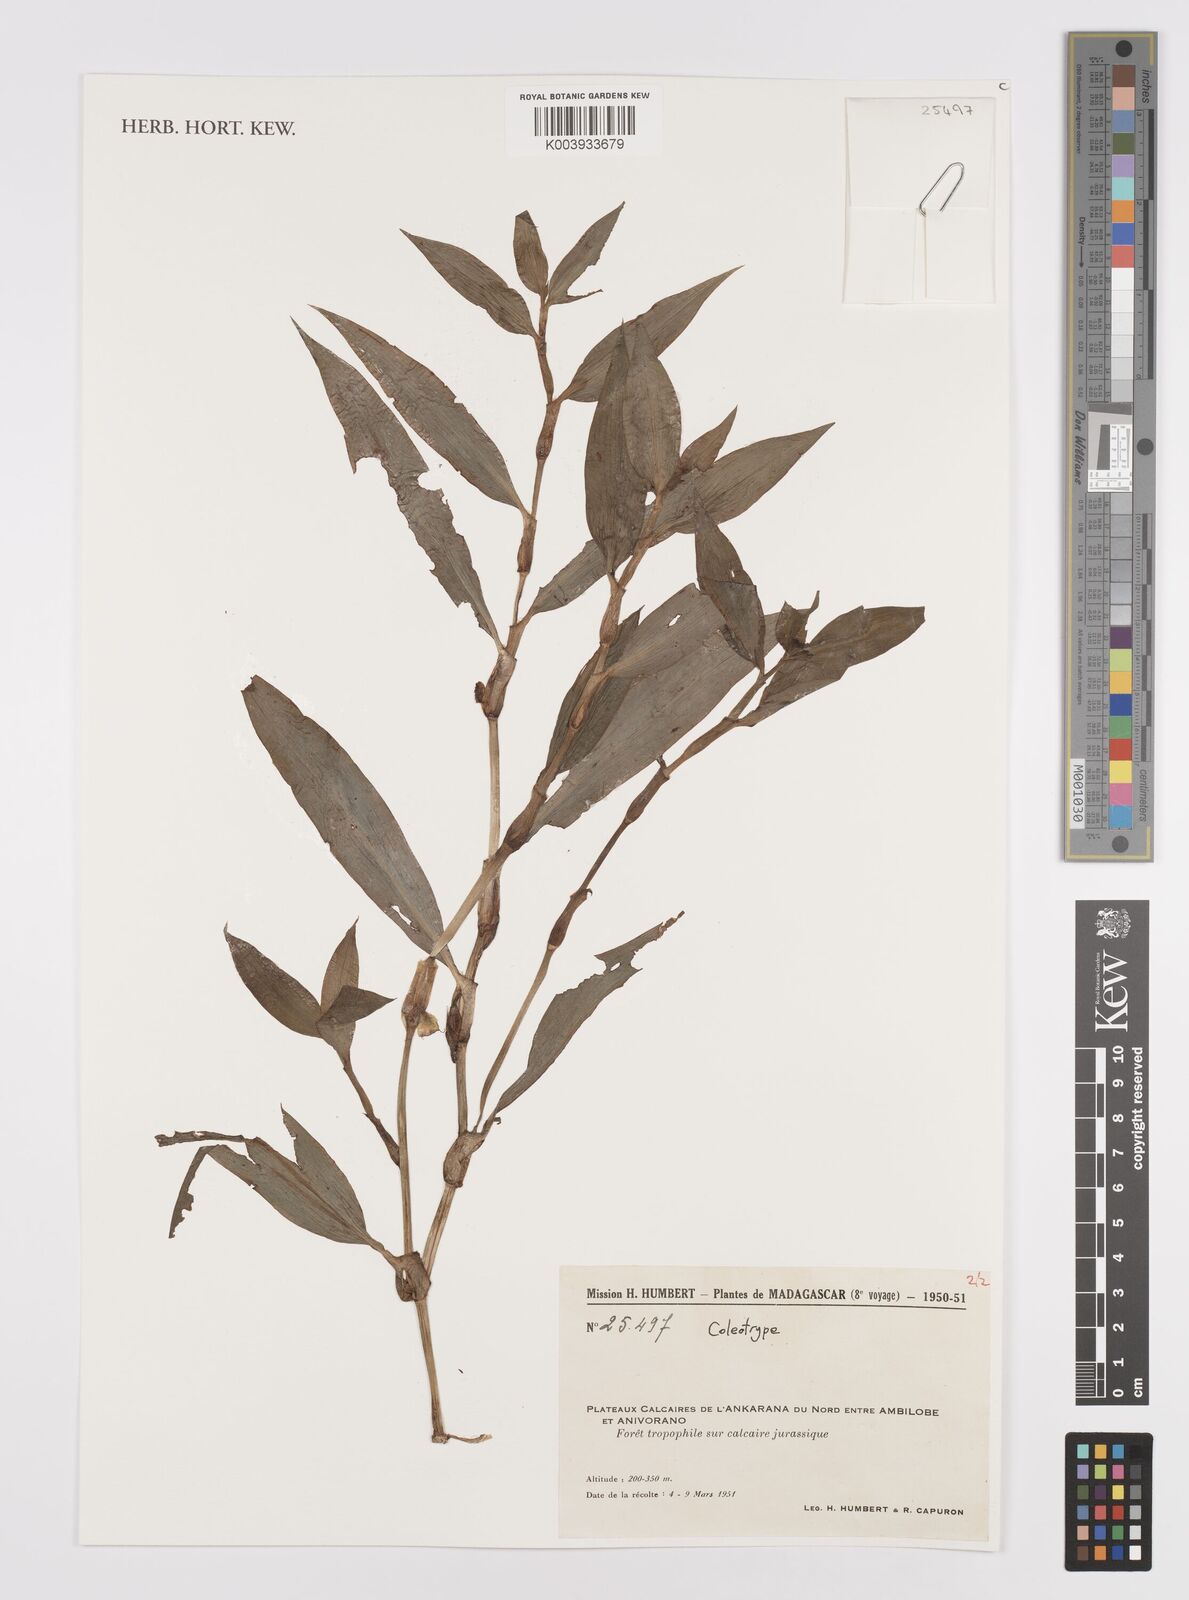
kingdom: Plantae
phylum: Tracheophyta
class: Liliopsida
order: Commelinales
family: Commelinaceae
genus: Coleotrype
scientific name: Coleotrype
